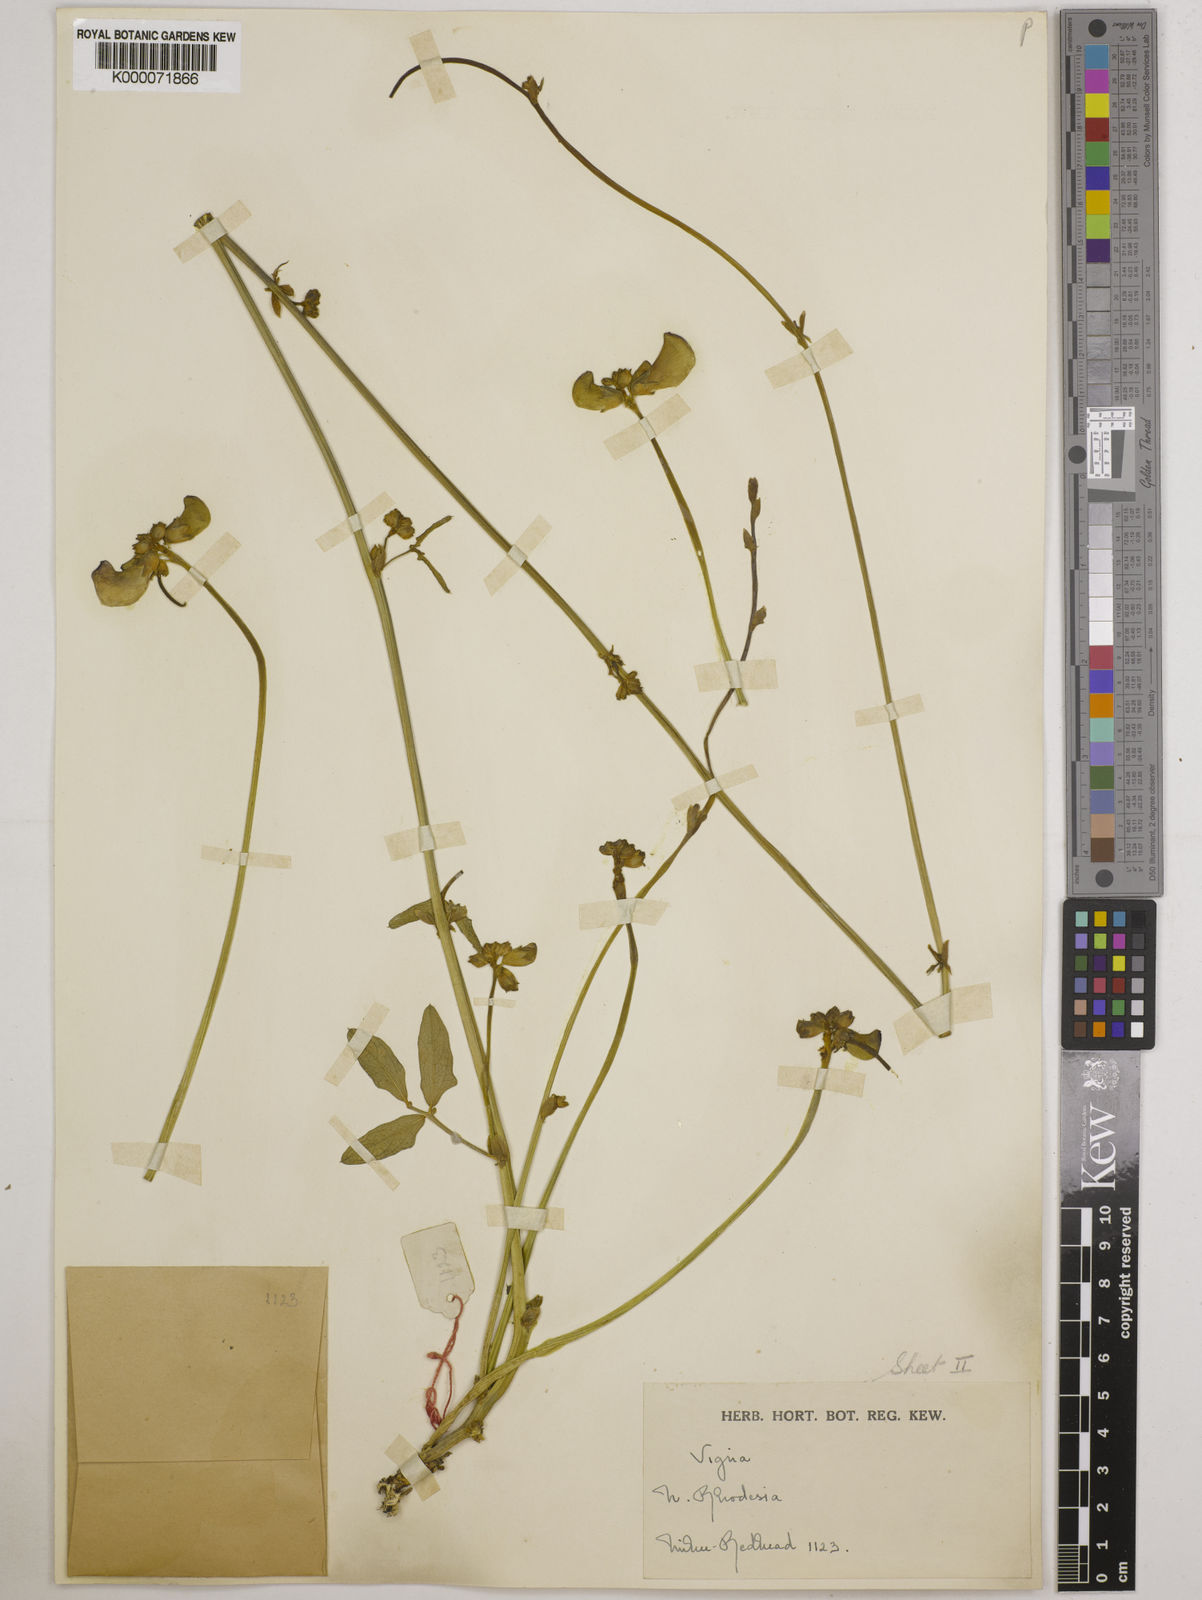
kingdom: Plantae
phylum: Tracheophyta
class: Magnoliopsida
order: Fabales
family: Fabaceae
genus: Vigna
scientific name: Vigna unguiculata
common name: Cowpea
